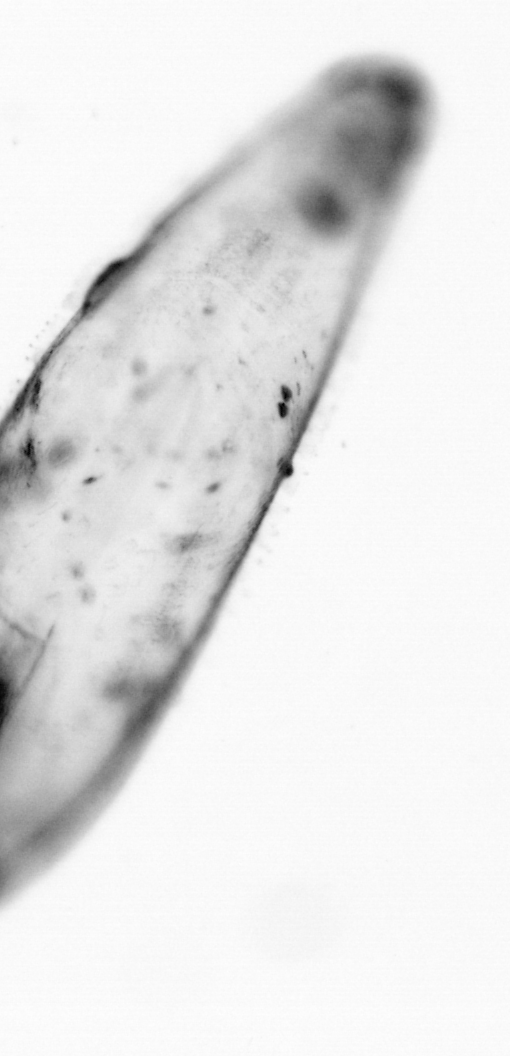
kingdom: Animalia
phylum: Chaetognatha
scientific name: Chaetognatha
